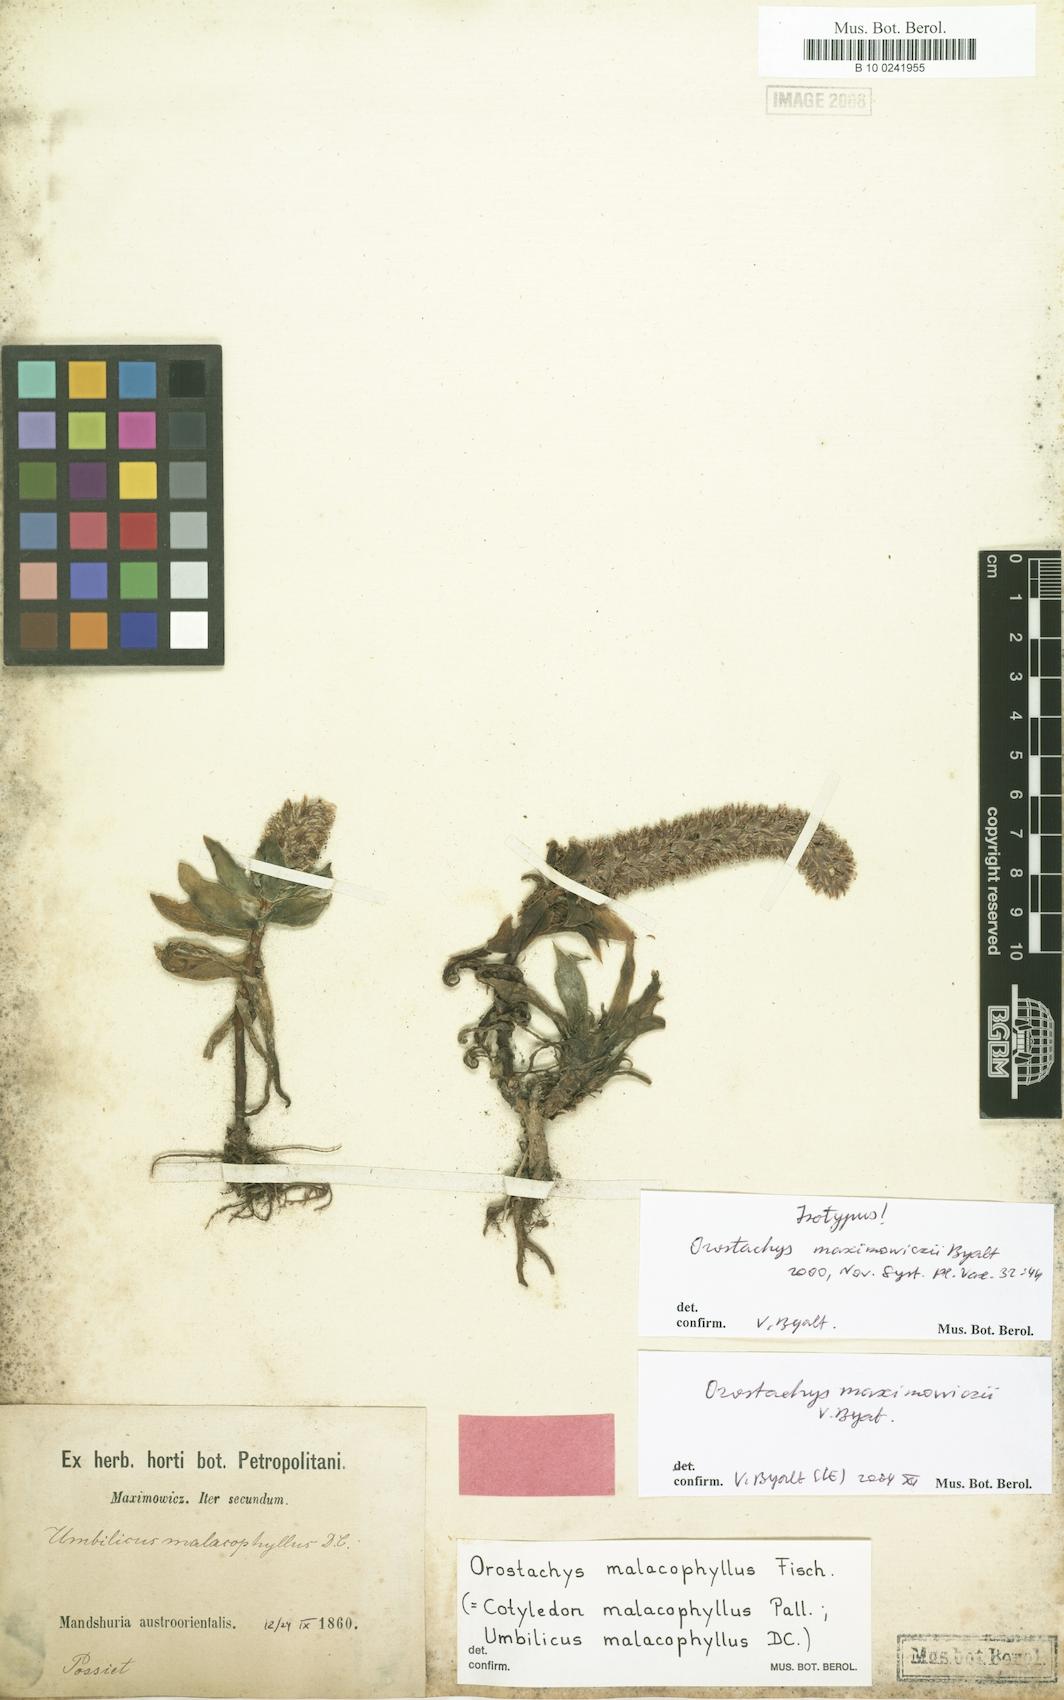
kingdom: Plantae
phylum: Tracheophyta
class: Magnoliopsida
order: Saxifragales
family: Crassulaceae
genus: Orostachys
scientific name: Orostachys maximowiczii
